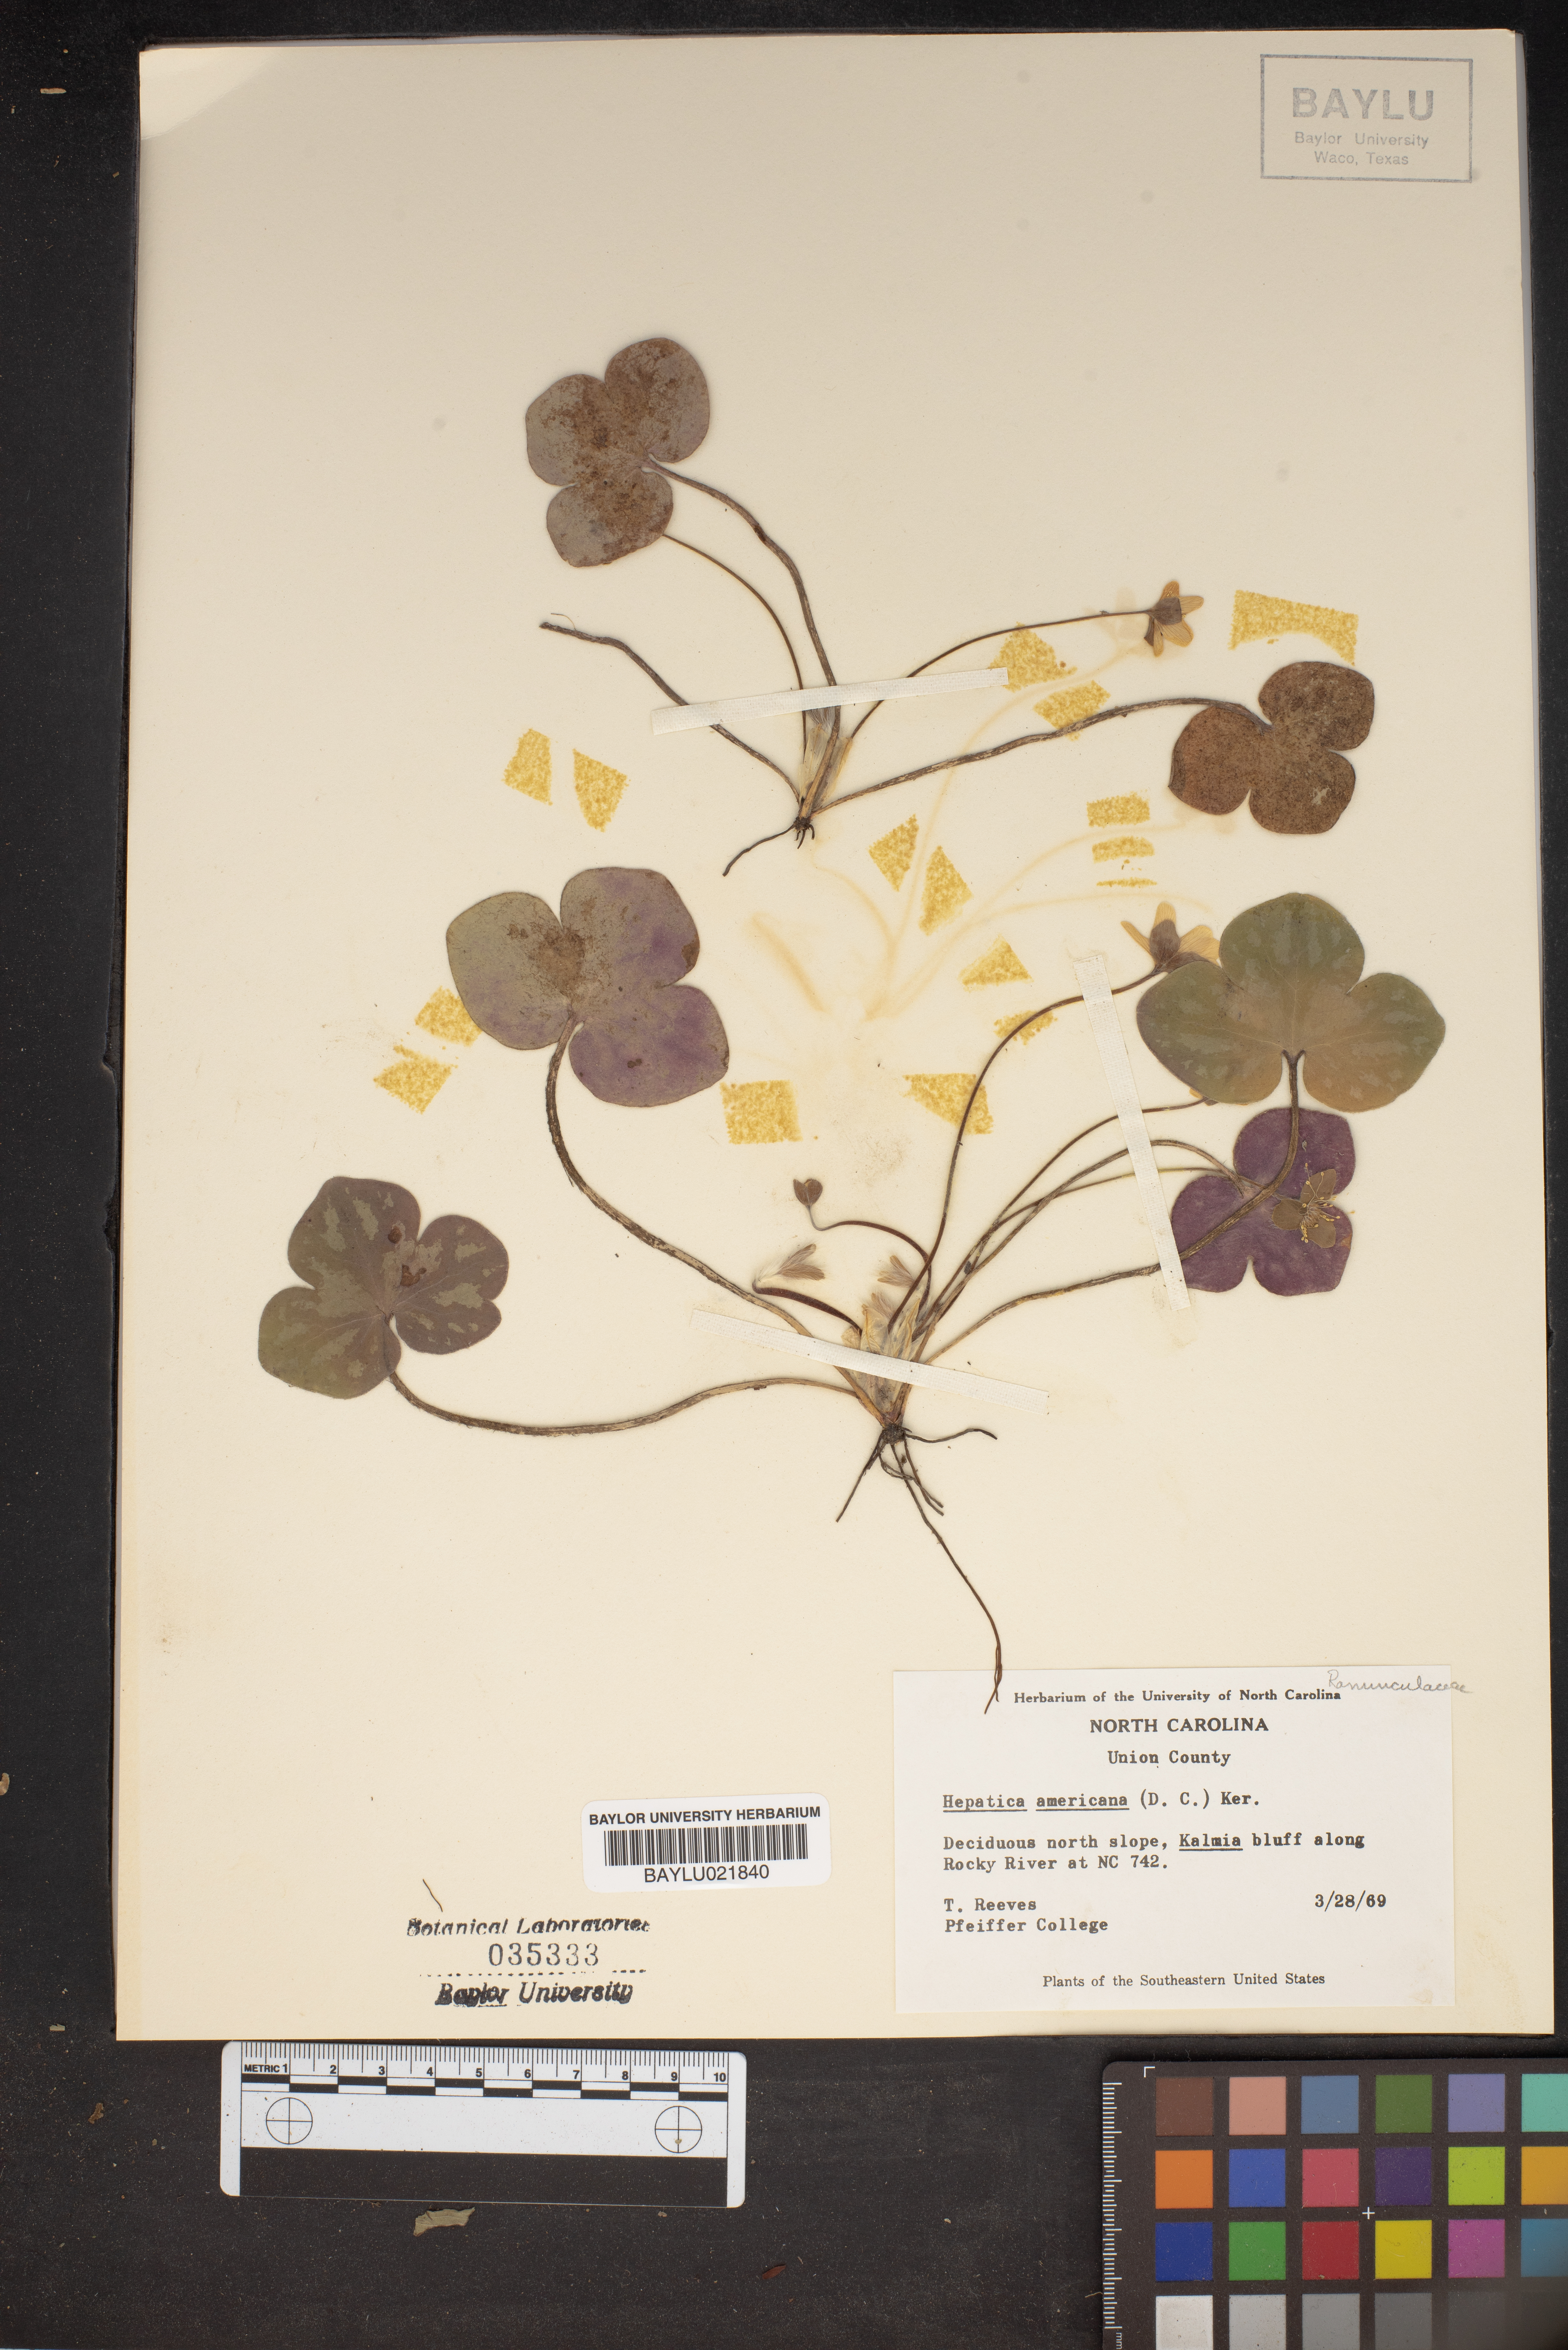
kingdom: Plantae
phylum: Tracheophyta
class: Magnoliopsida
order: Ranunculales
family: Ranunculaceae
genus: Hepatica
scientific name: Hepatica americana
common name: American hepatica
